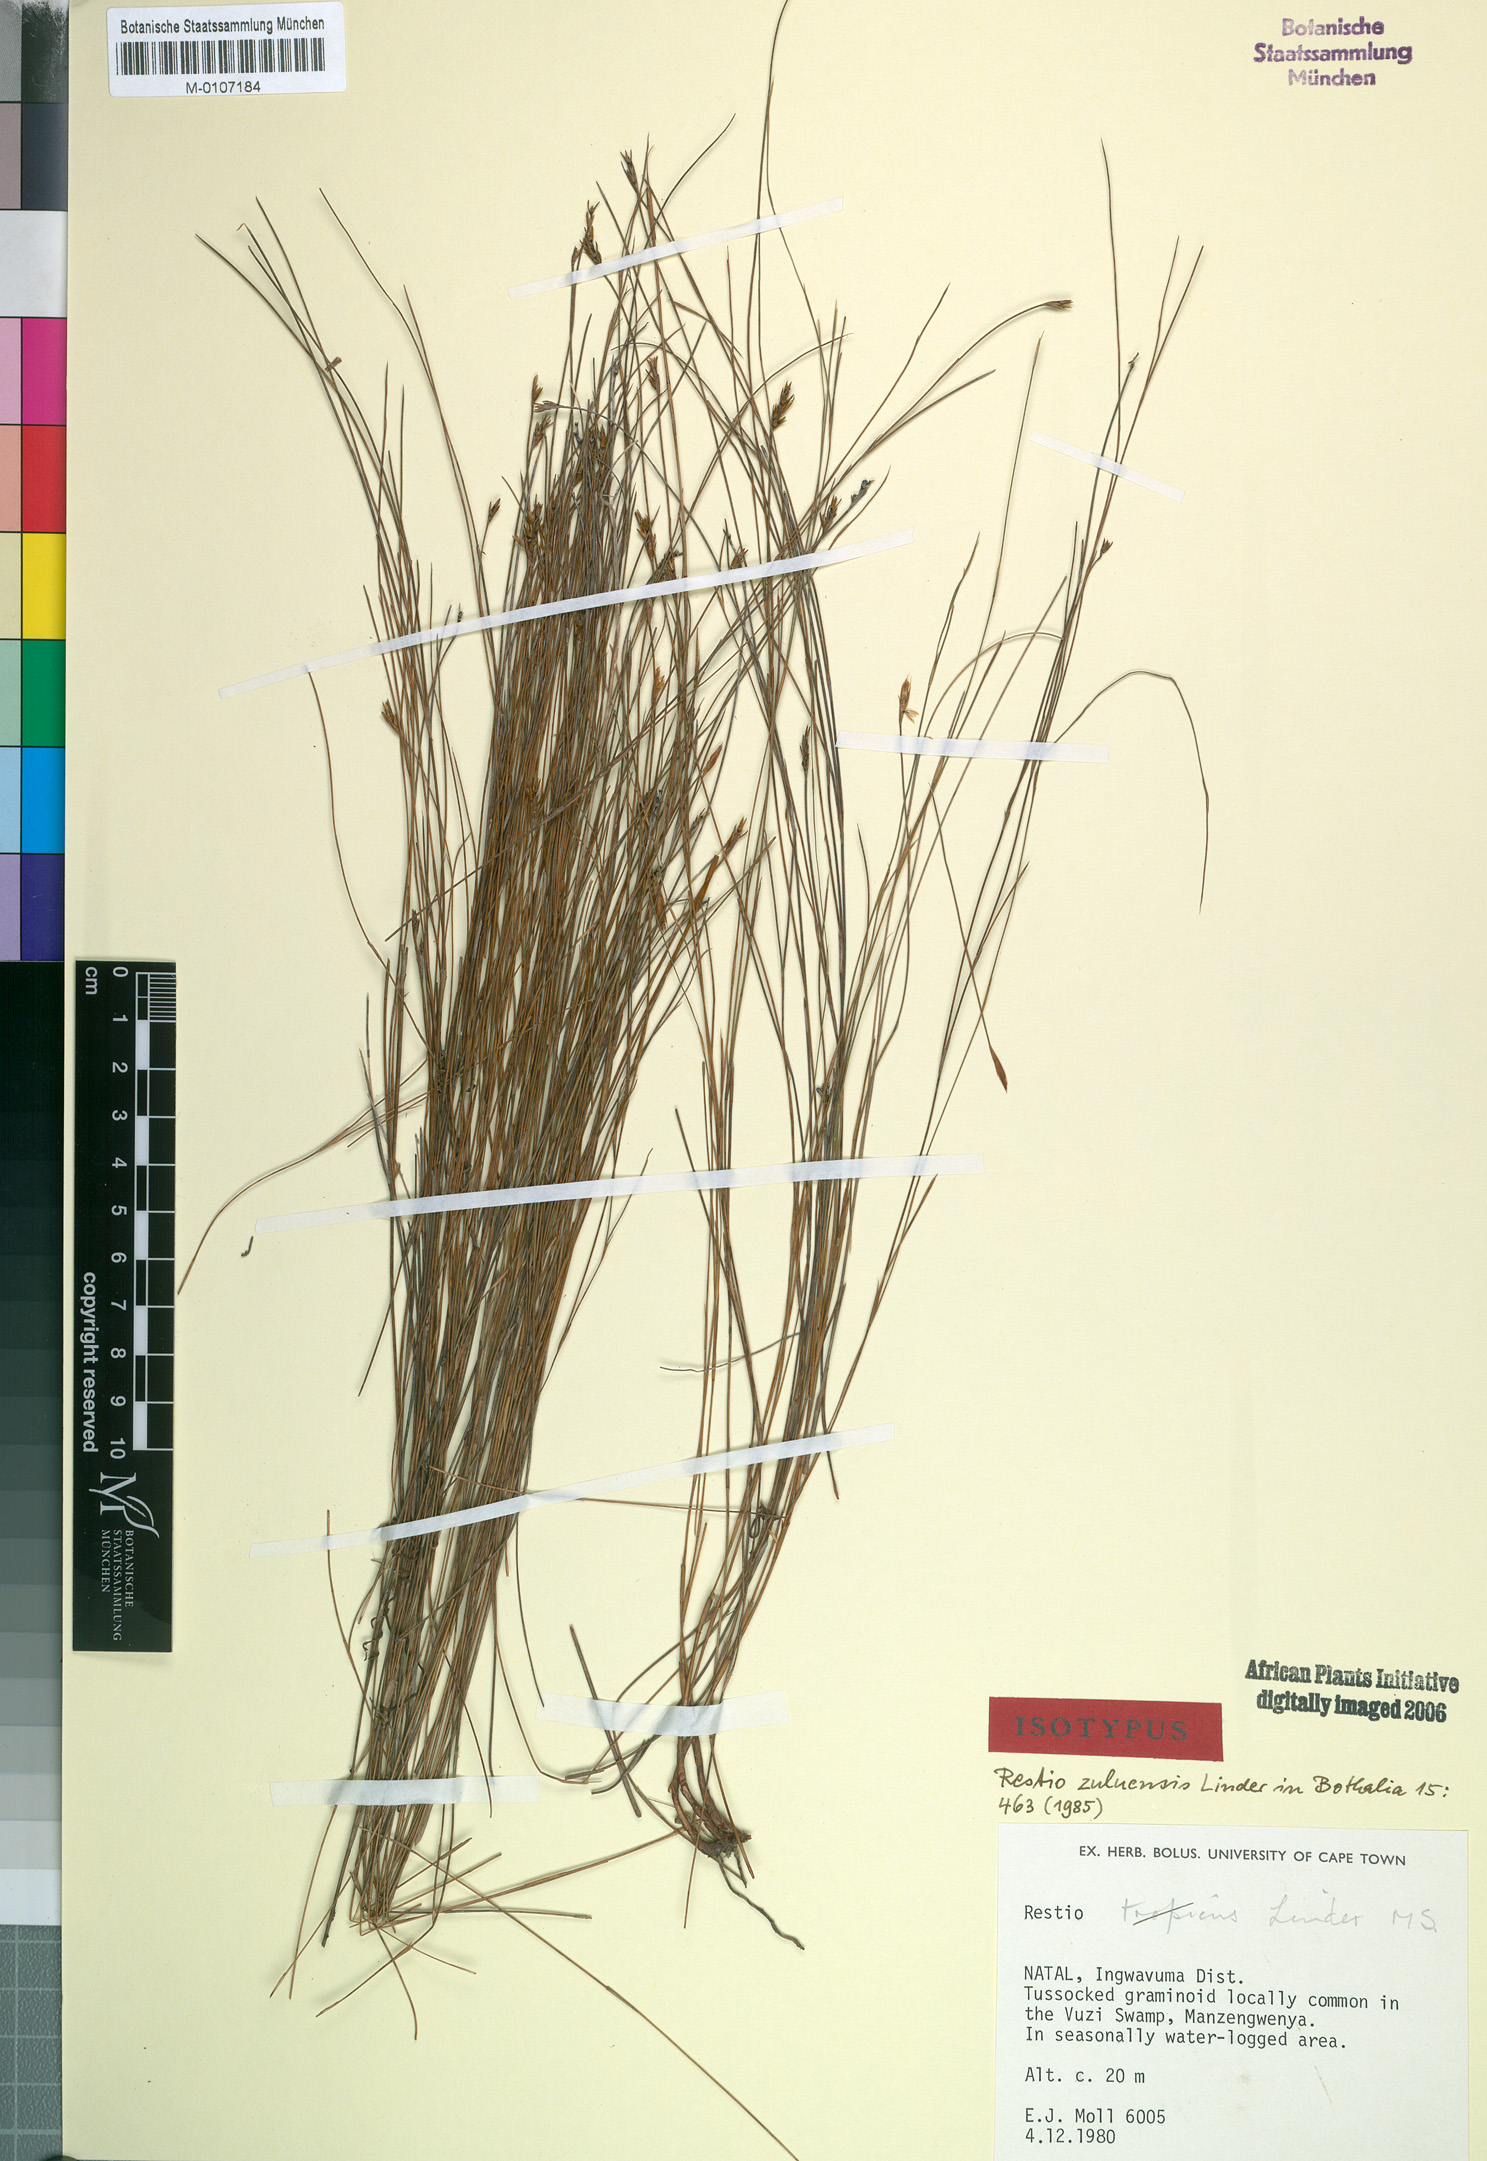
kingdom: Plantae
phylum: Tracheophyta
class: Liliopsida
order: Poales
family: Restionaceae
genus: Restio
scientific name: Restio zuluensis
